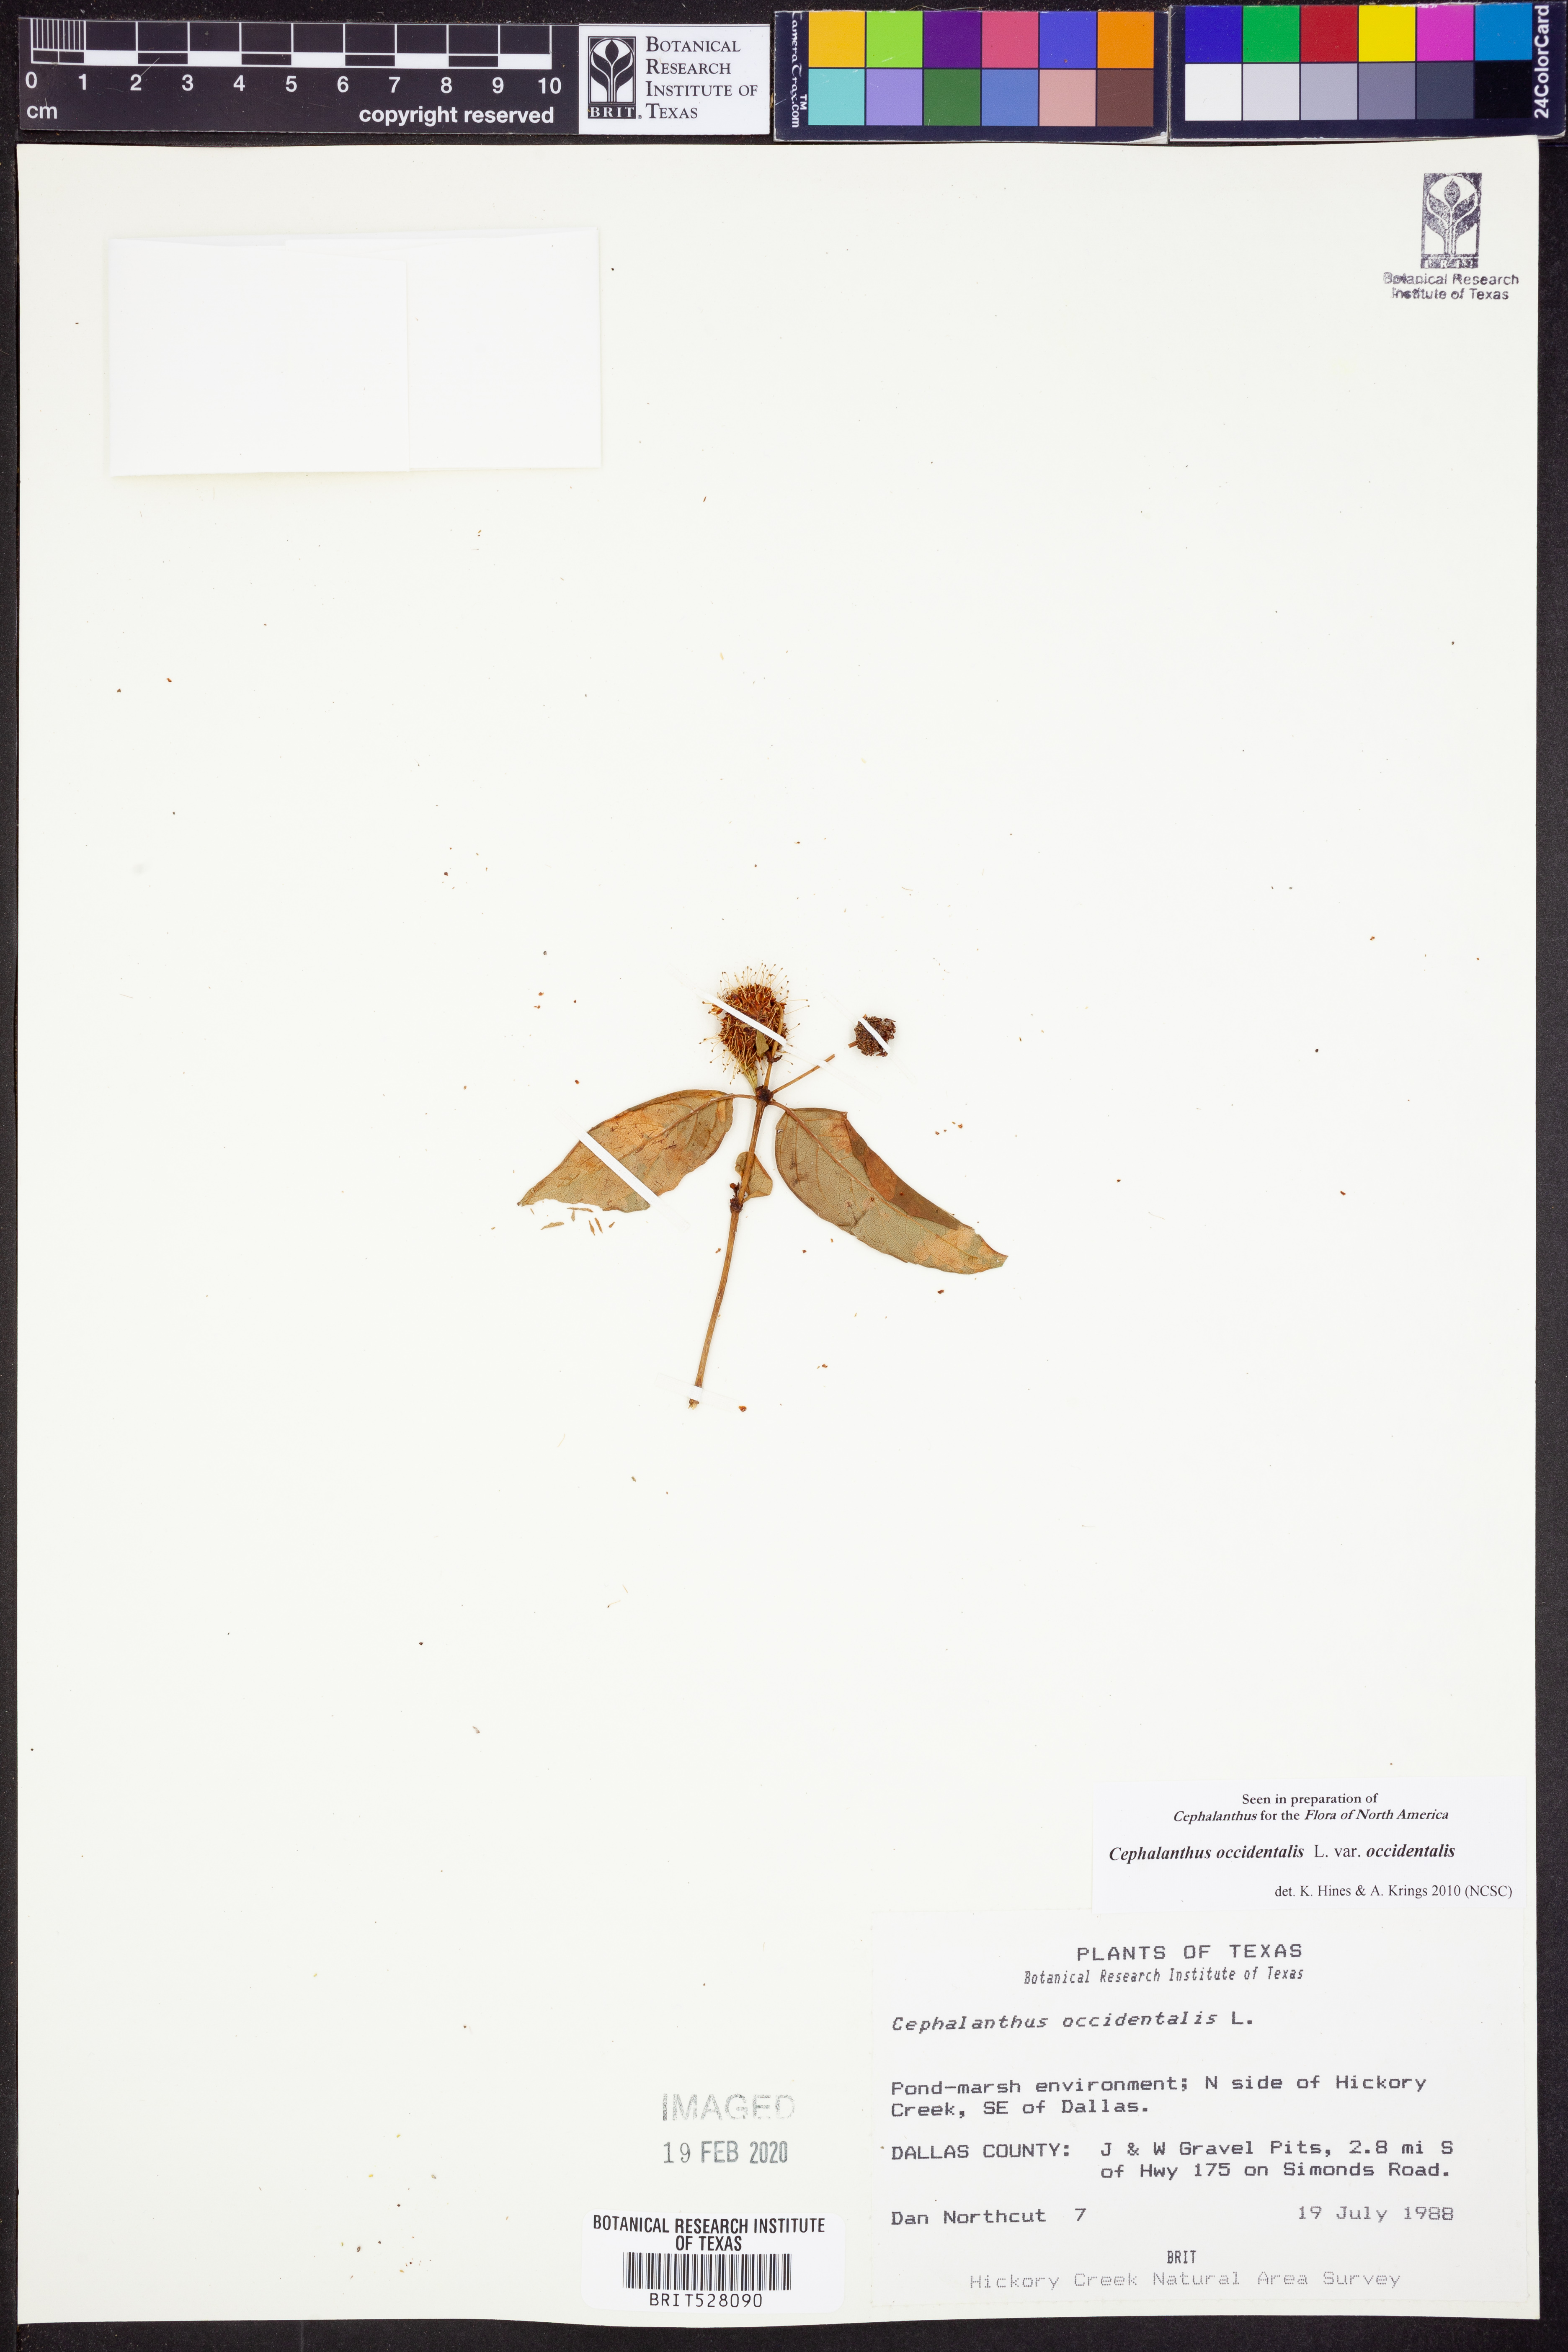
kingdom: Plantae
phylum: Tracheophyta
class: Magnoliopsida
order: Gentianales
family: Rubiaceae
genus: Cephalanthus
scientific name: Cephalanthus occidentalis
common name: Button-willow
